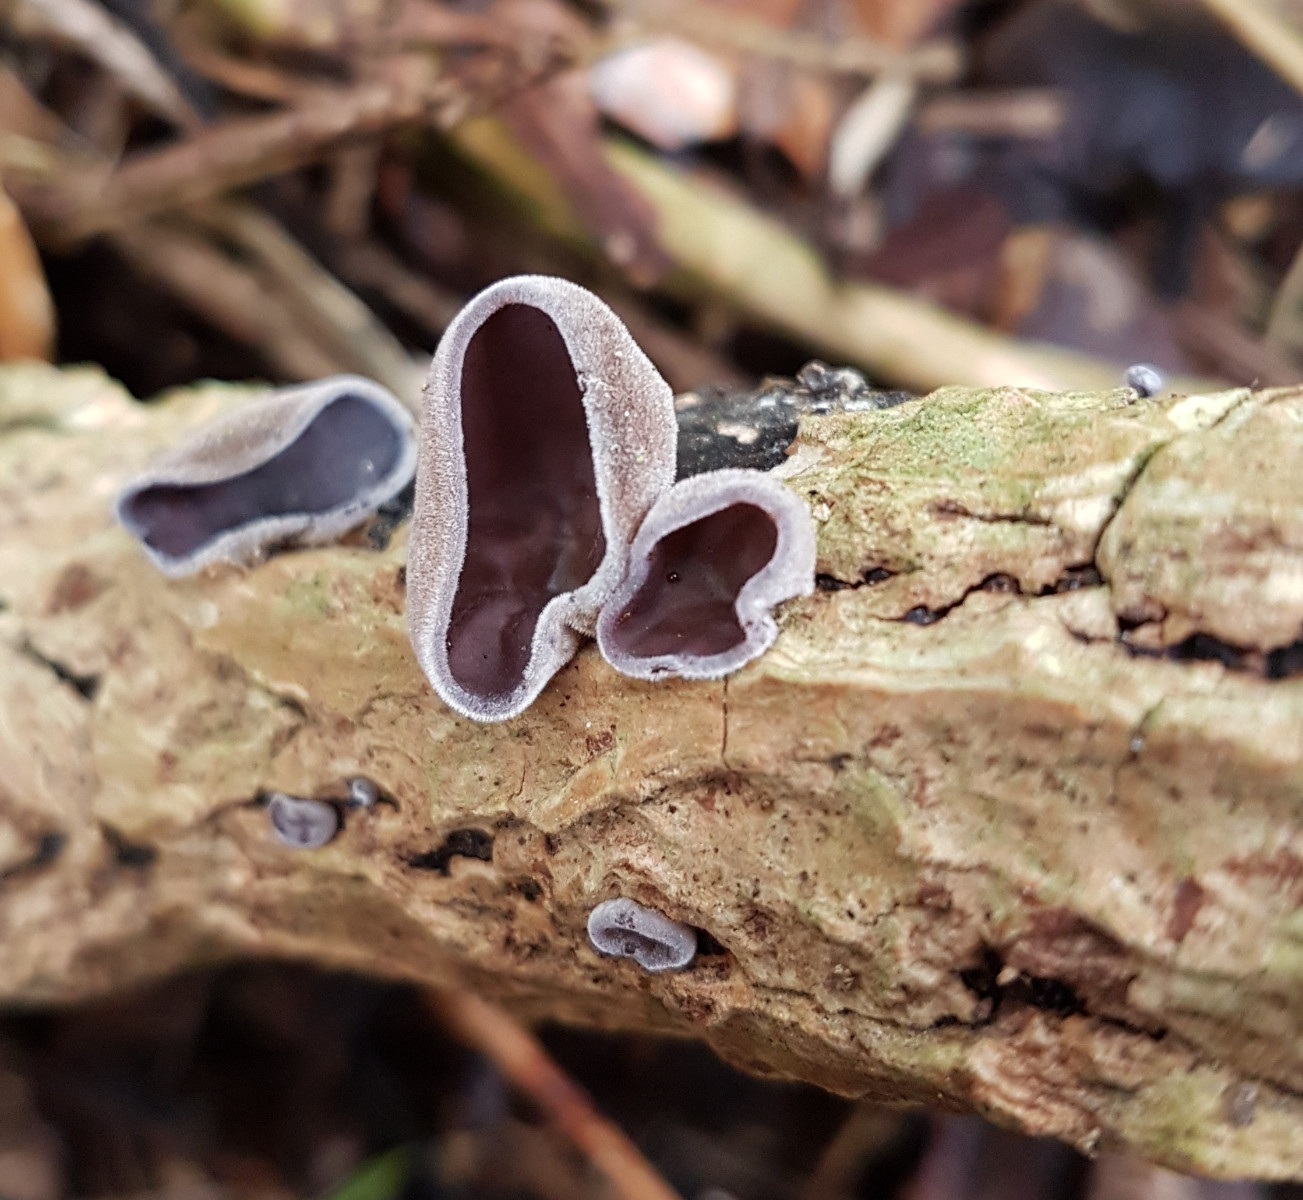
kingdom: Fungi
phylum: Basidiomycota
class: Agaricomycetes
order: Auriculariales
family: Auriculariaceae
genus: Auricularia
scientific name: Auricularia auricula-judae
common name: almindelig judasøre
